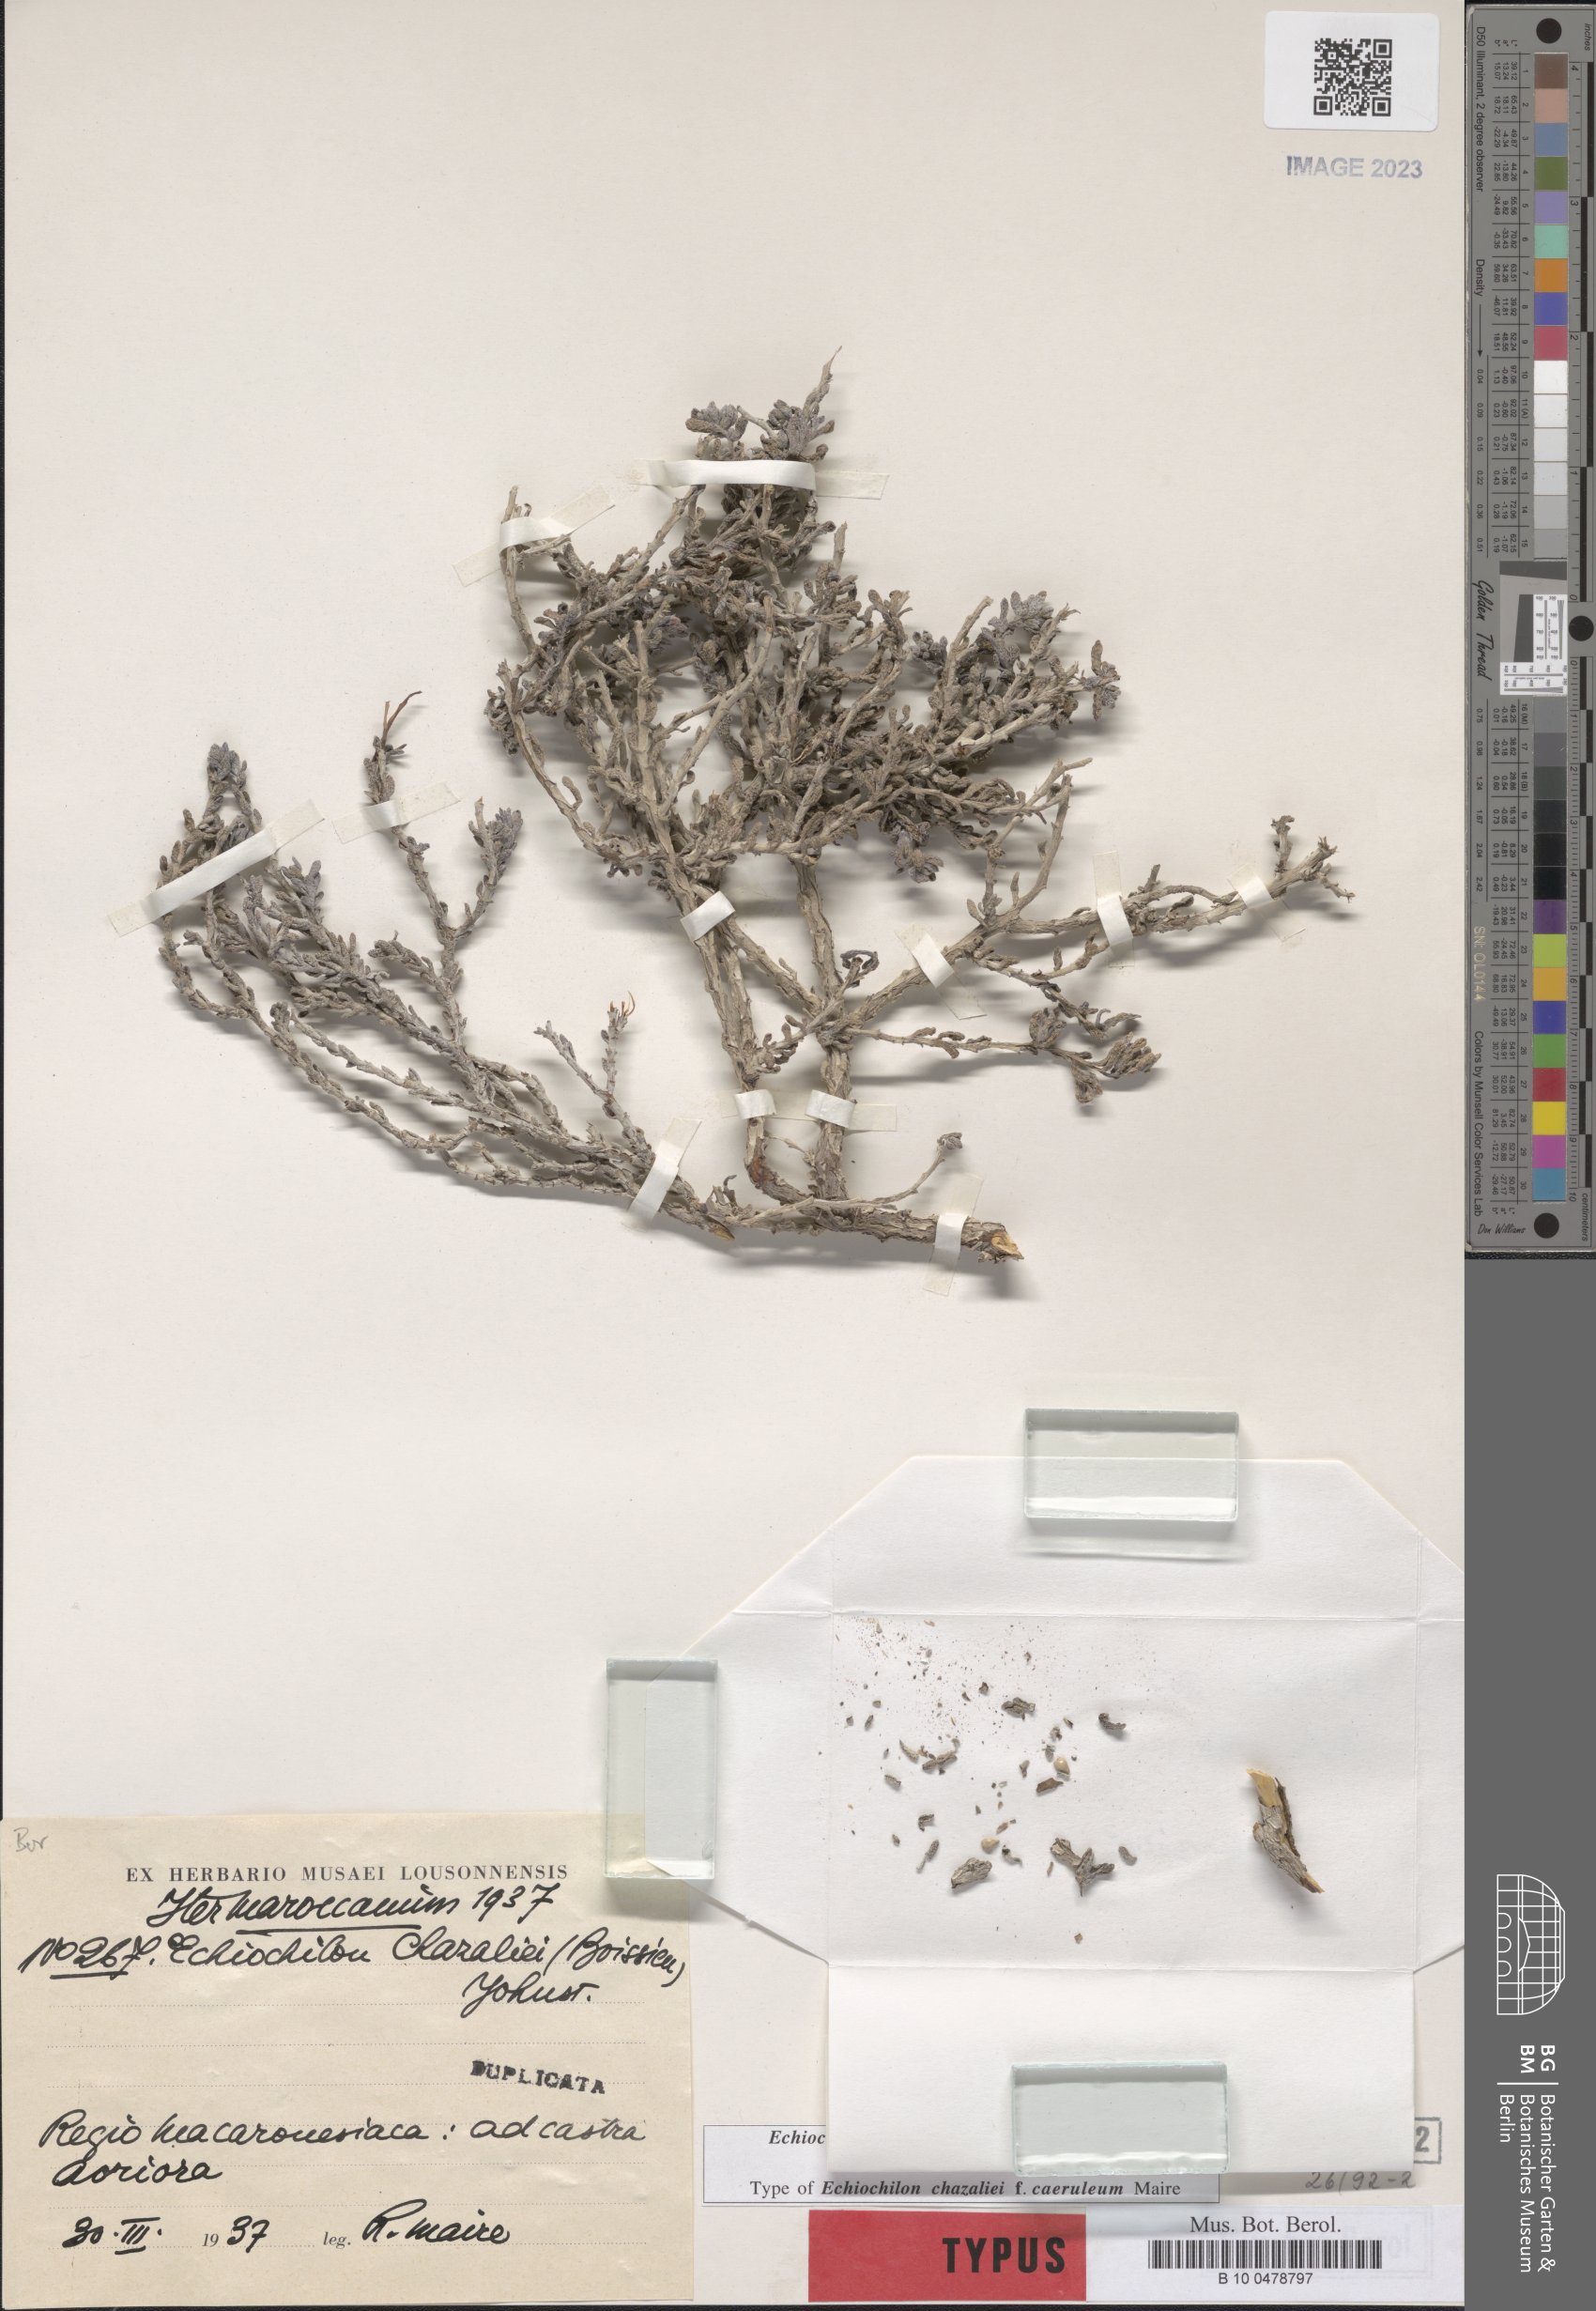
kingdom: Plantae
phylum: Tracheophyta
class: Magnoliopsida
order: Boraginales
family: Boraginaceae
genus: Echiochilon
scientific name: Echiochilon chazaliei
